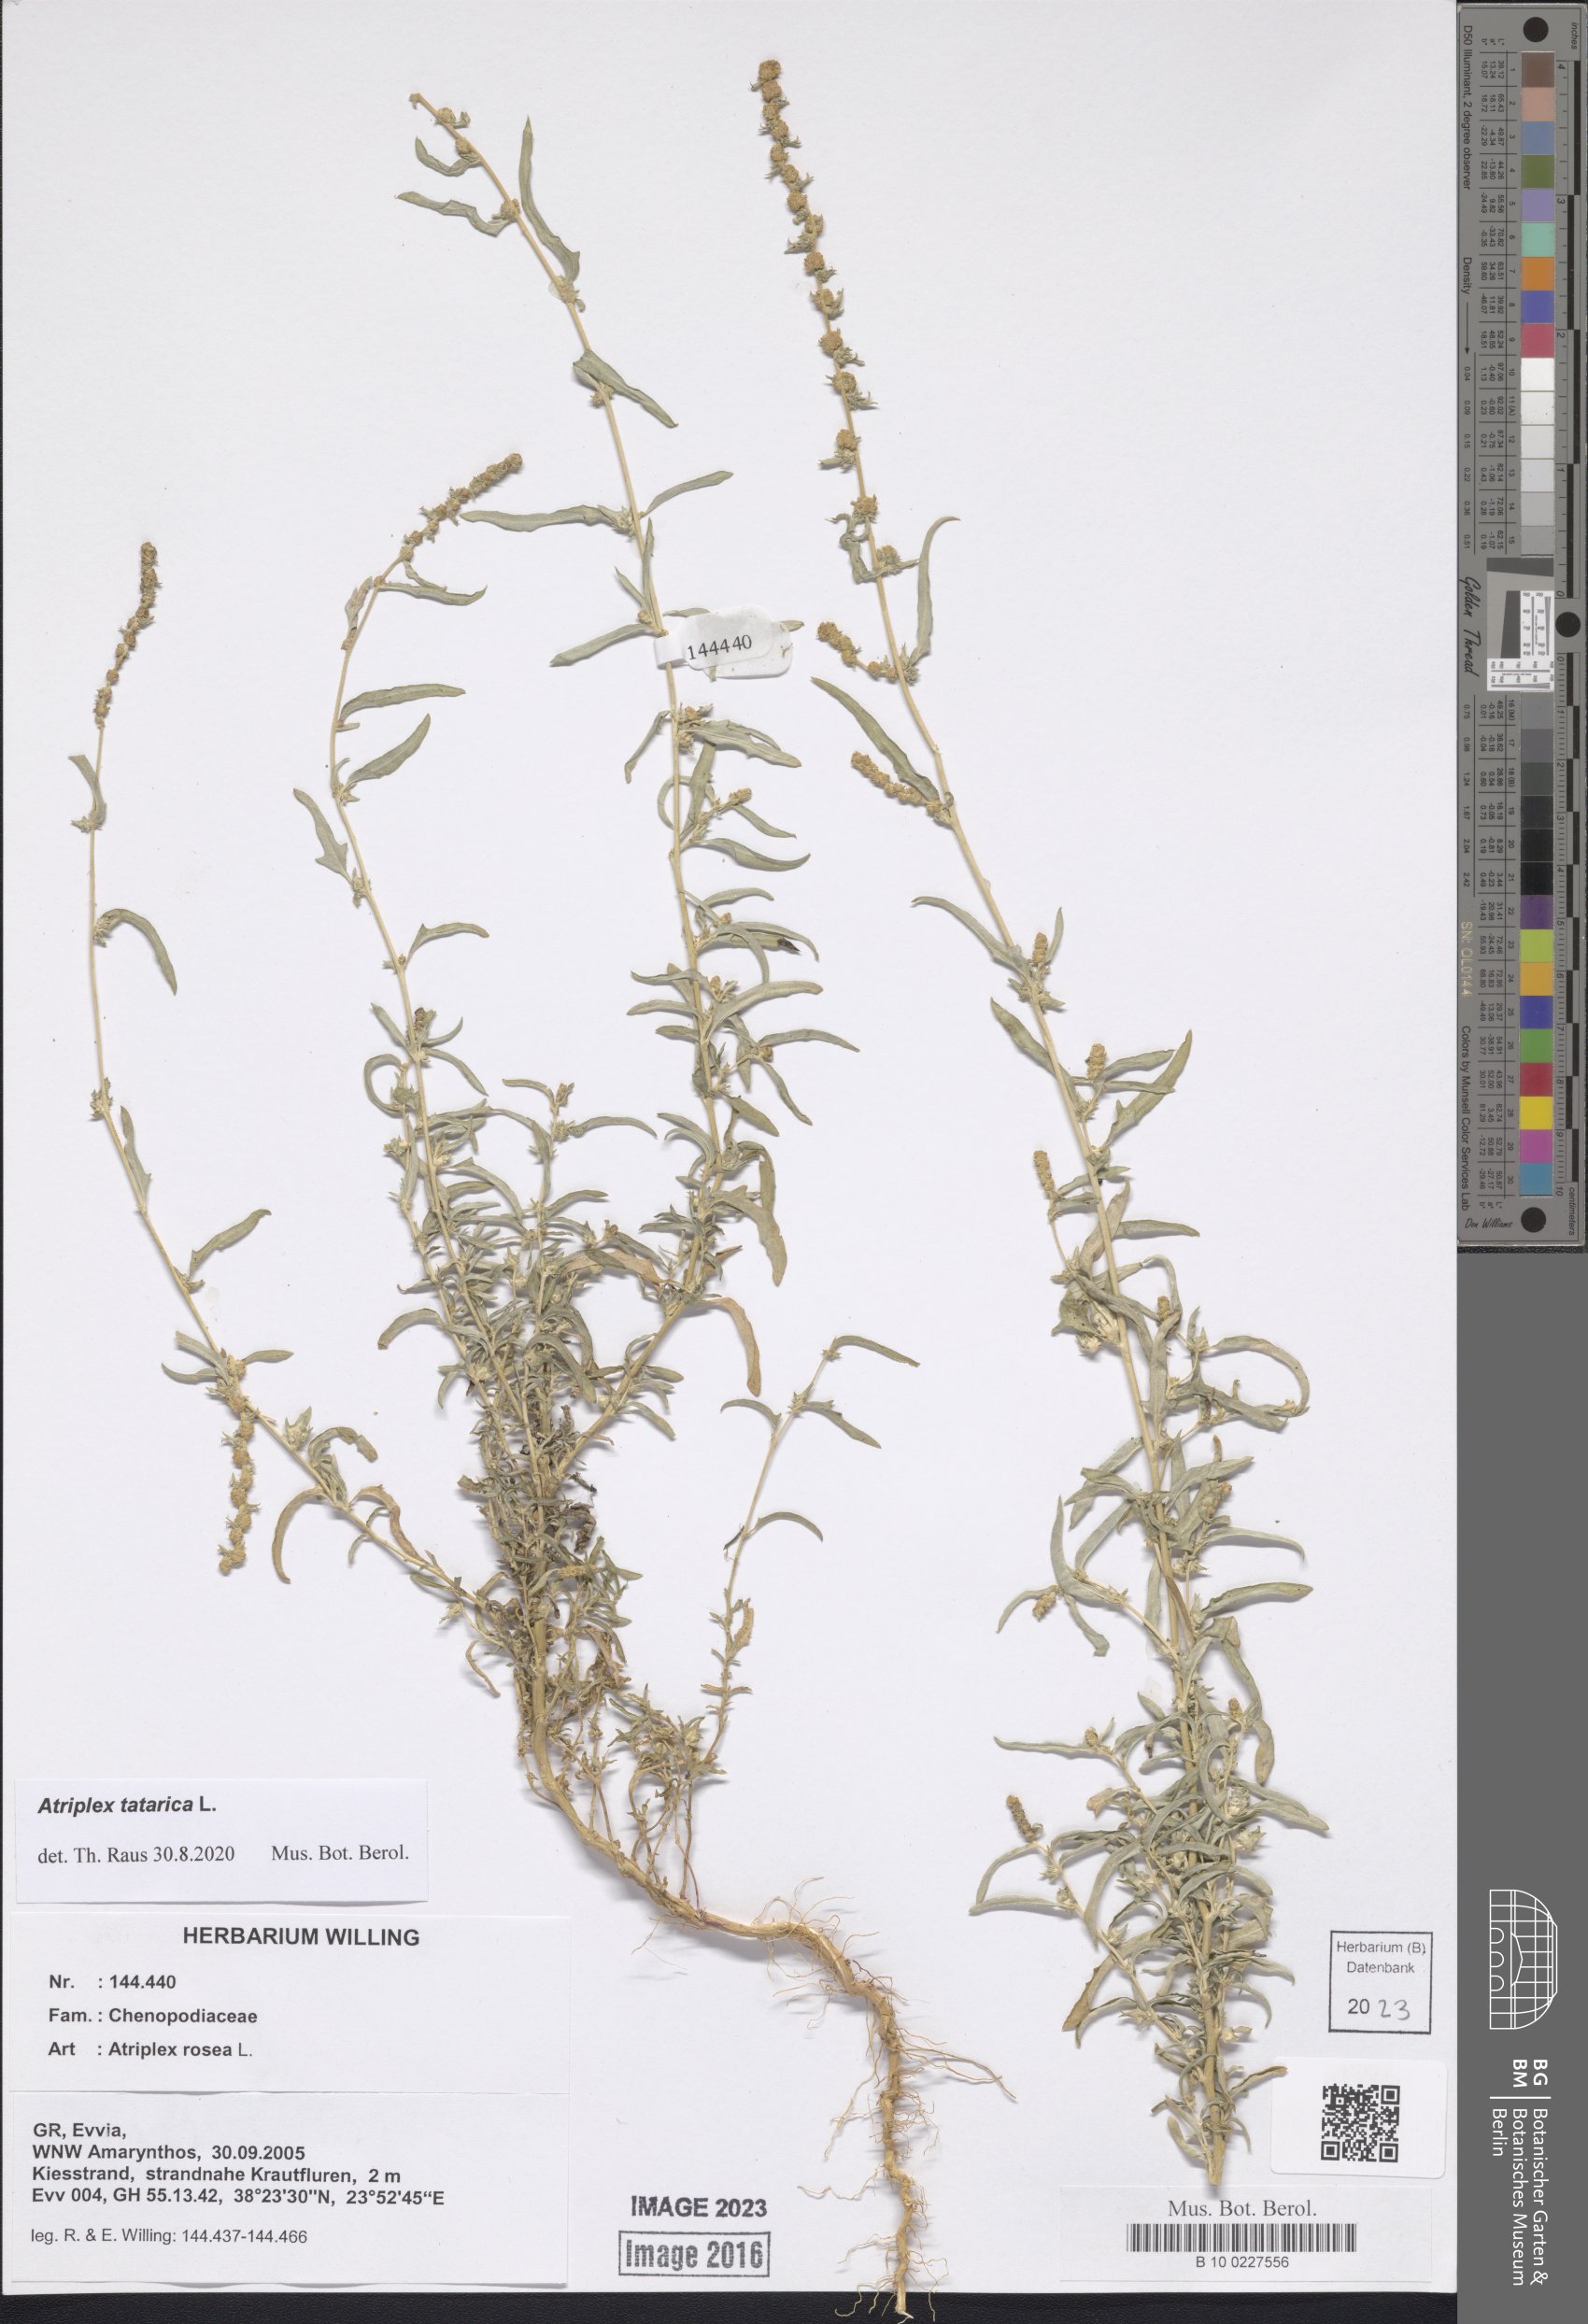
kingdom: Plantae
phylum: Tracheophyta
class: Magnoliopsida
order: Caryophyllales
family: Amaranthaceae
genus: Atriplex
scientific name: Atriplex tatarica
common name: Tatarian orache
